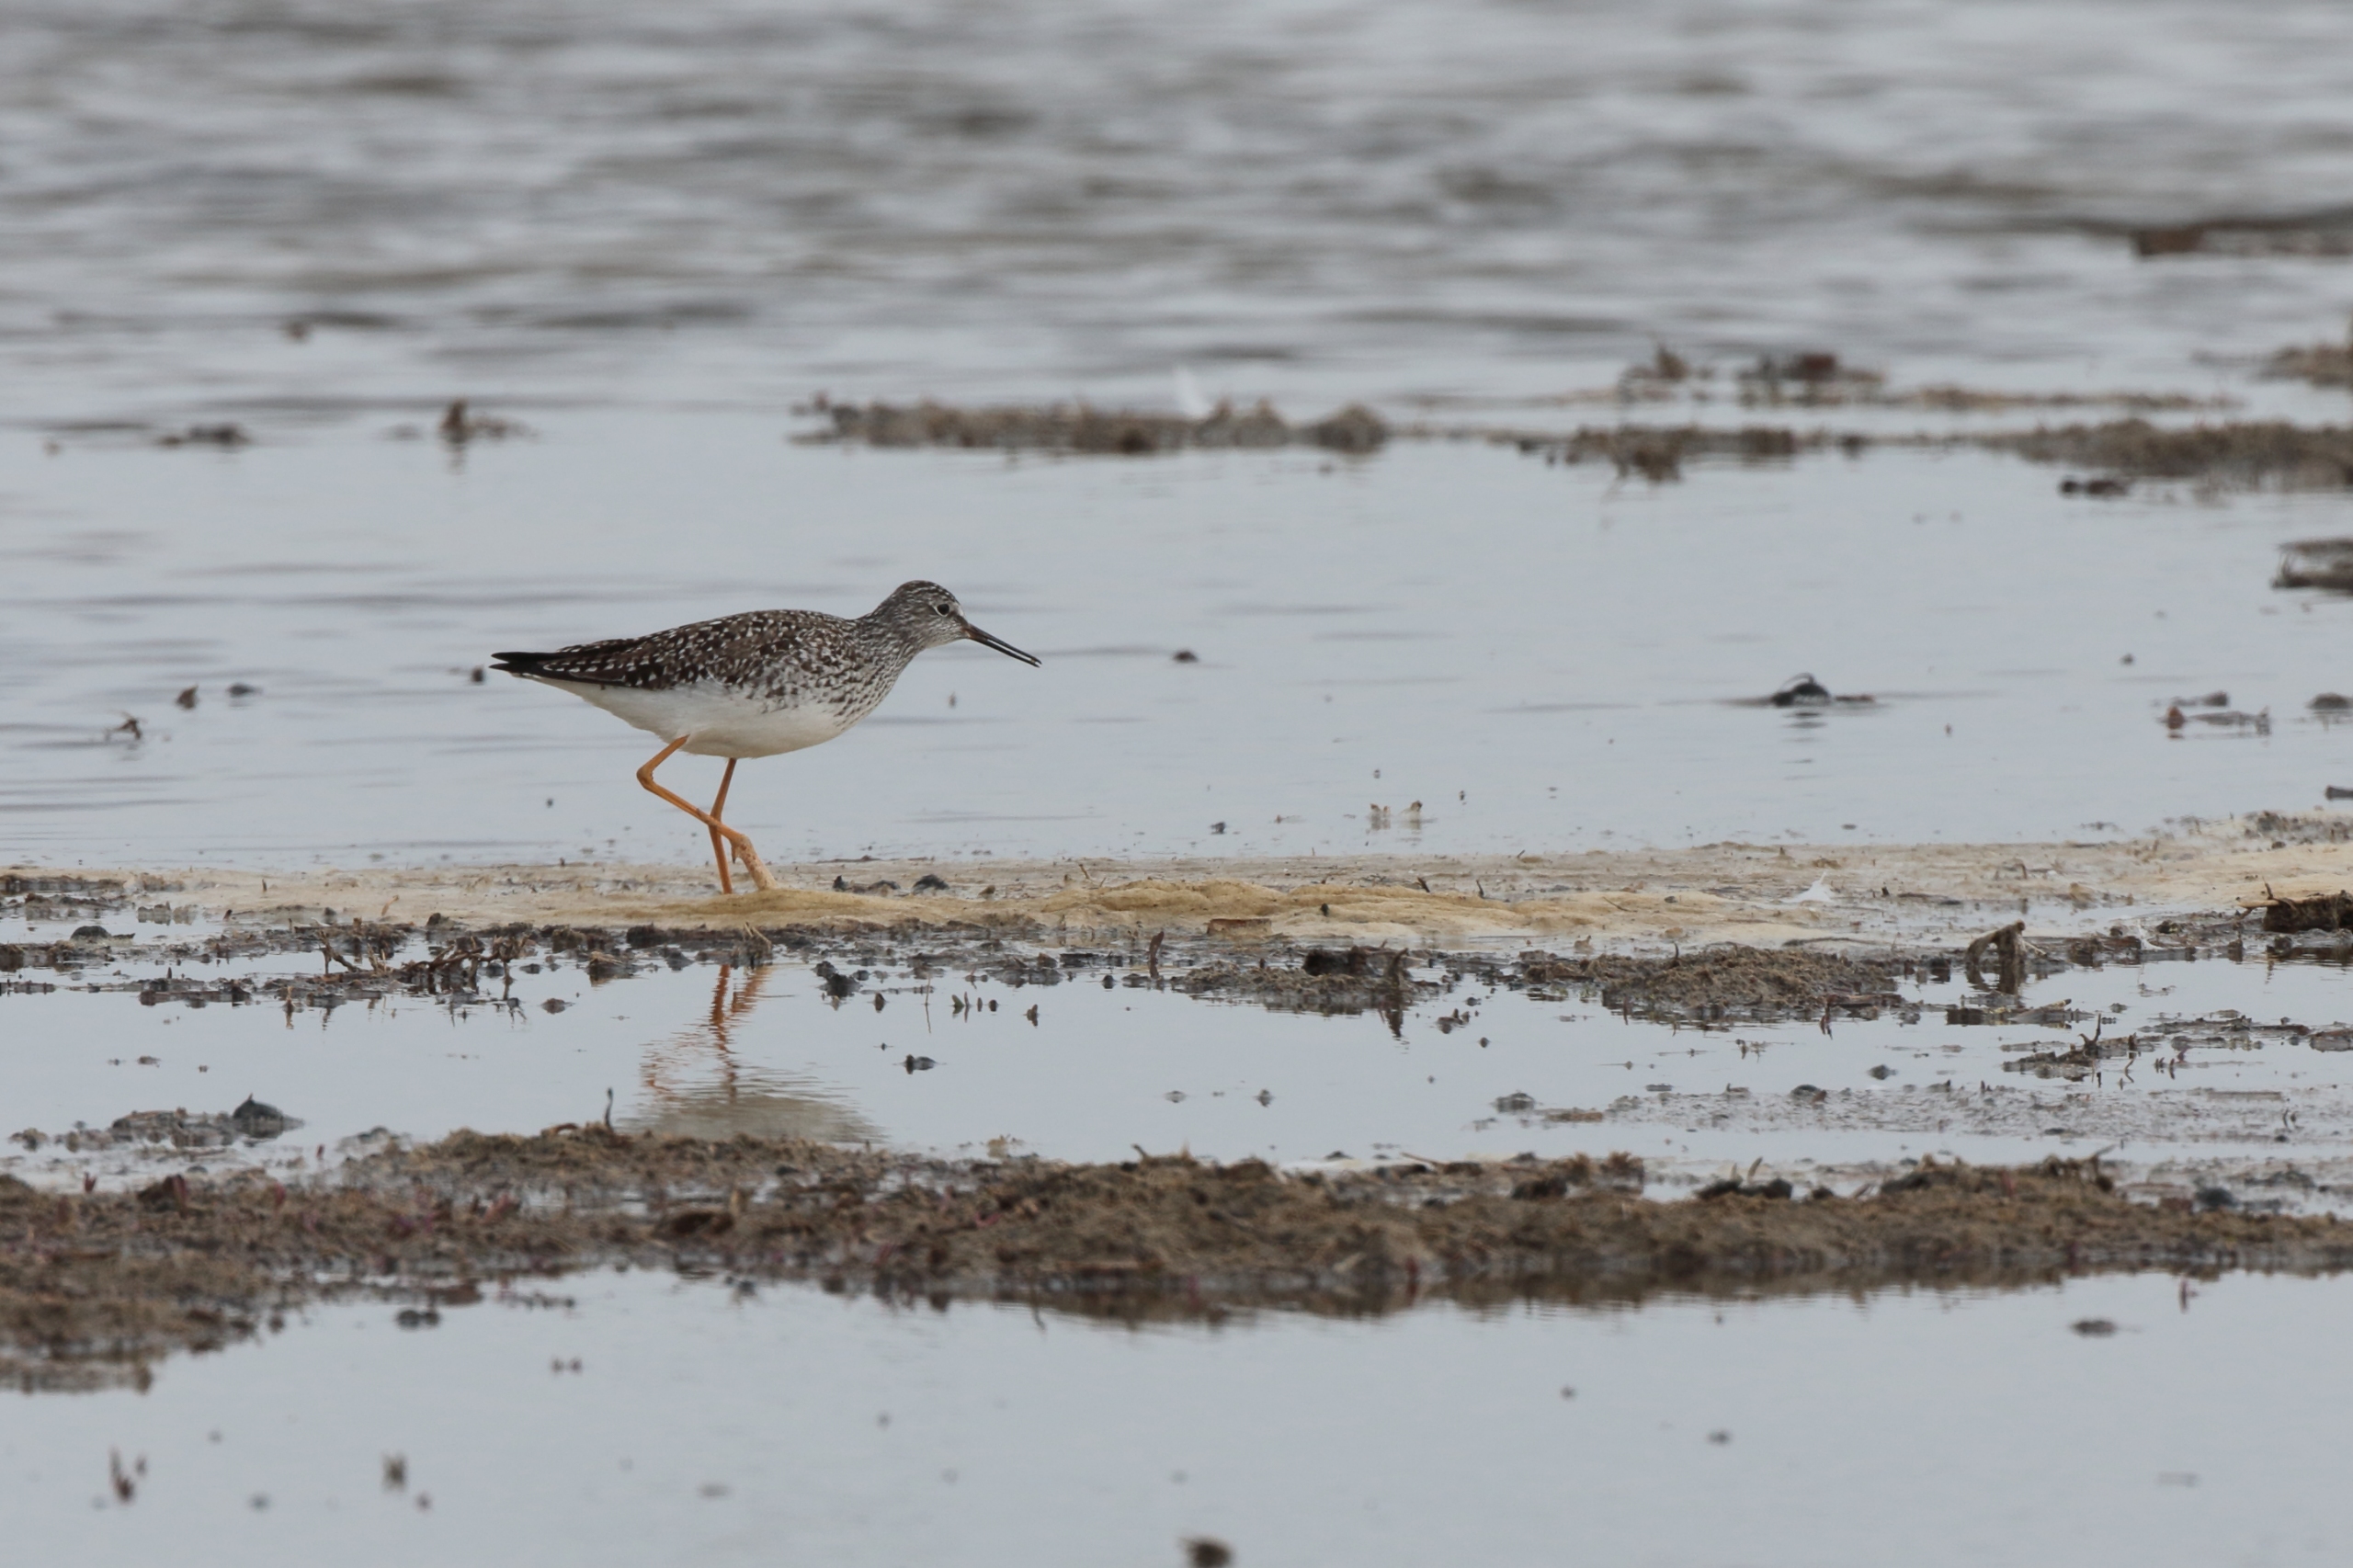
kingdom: Animalia
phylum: Chordata
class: Aves
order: Charadriiformes
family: Scolopacidae
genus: Tringa
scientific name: Tringa flavipes
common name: Lille gulben
